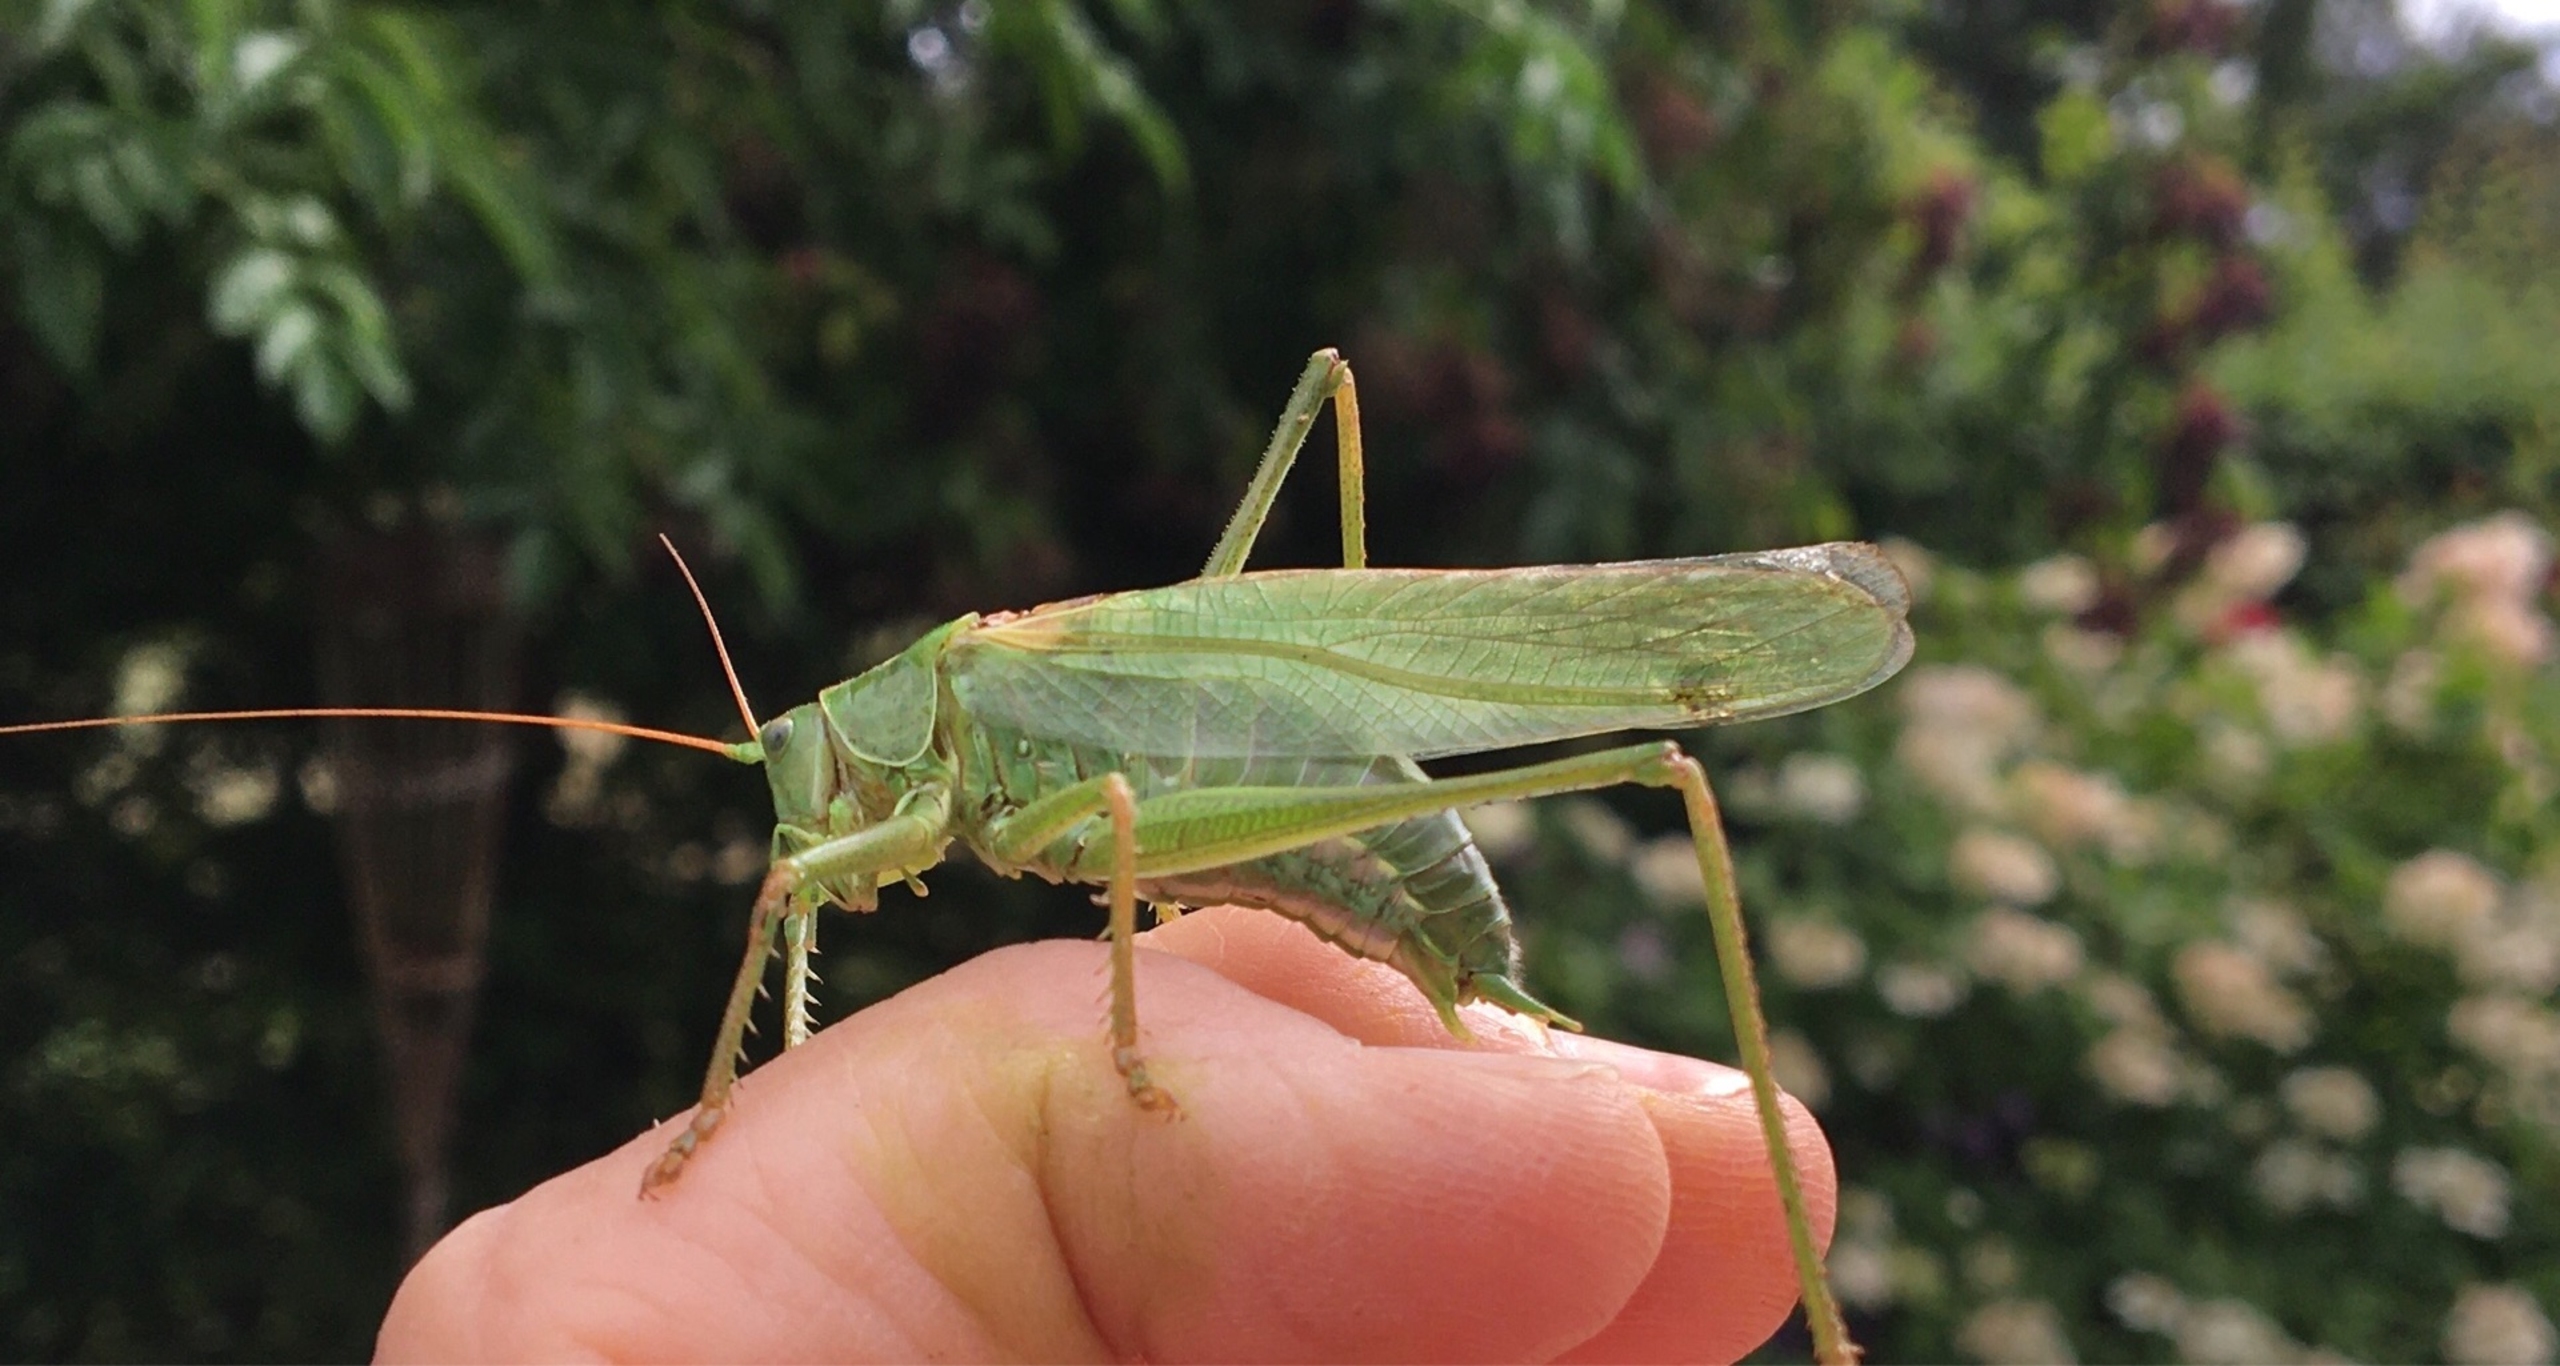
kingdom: Animalia
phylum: Arthropoda
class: Insecta
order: Orthoptera
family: Tettigoniidae
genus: Tettigonia
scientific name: Tettigonia viridissima
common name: Stor grøn løvgræshoppe
